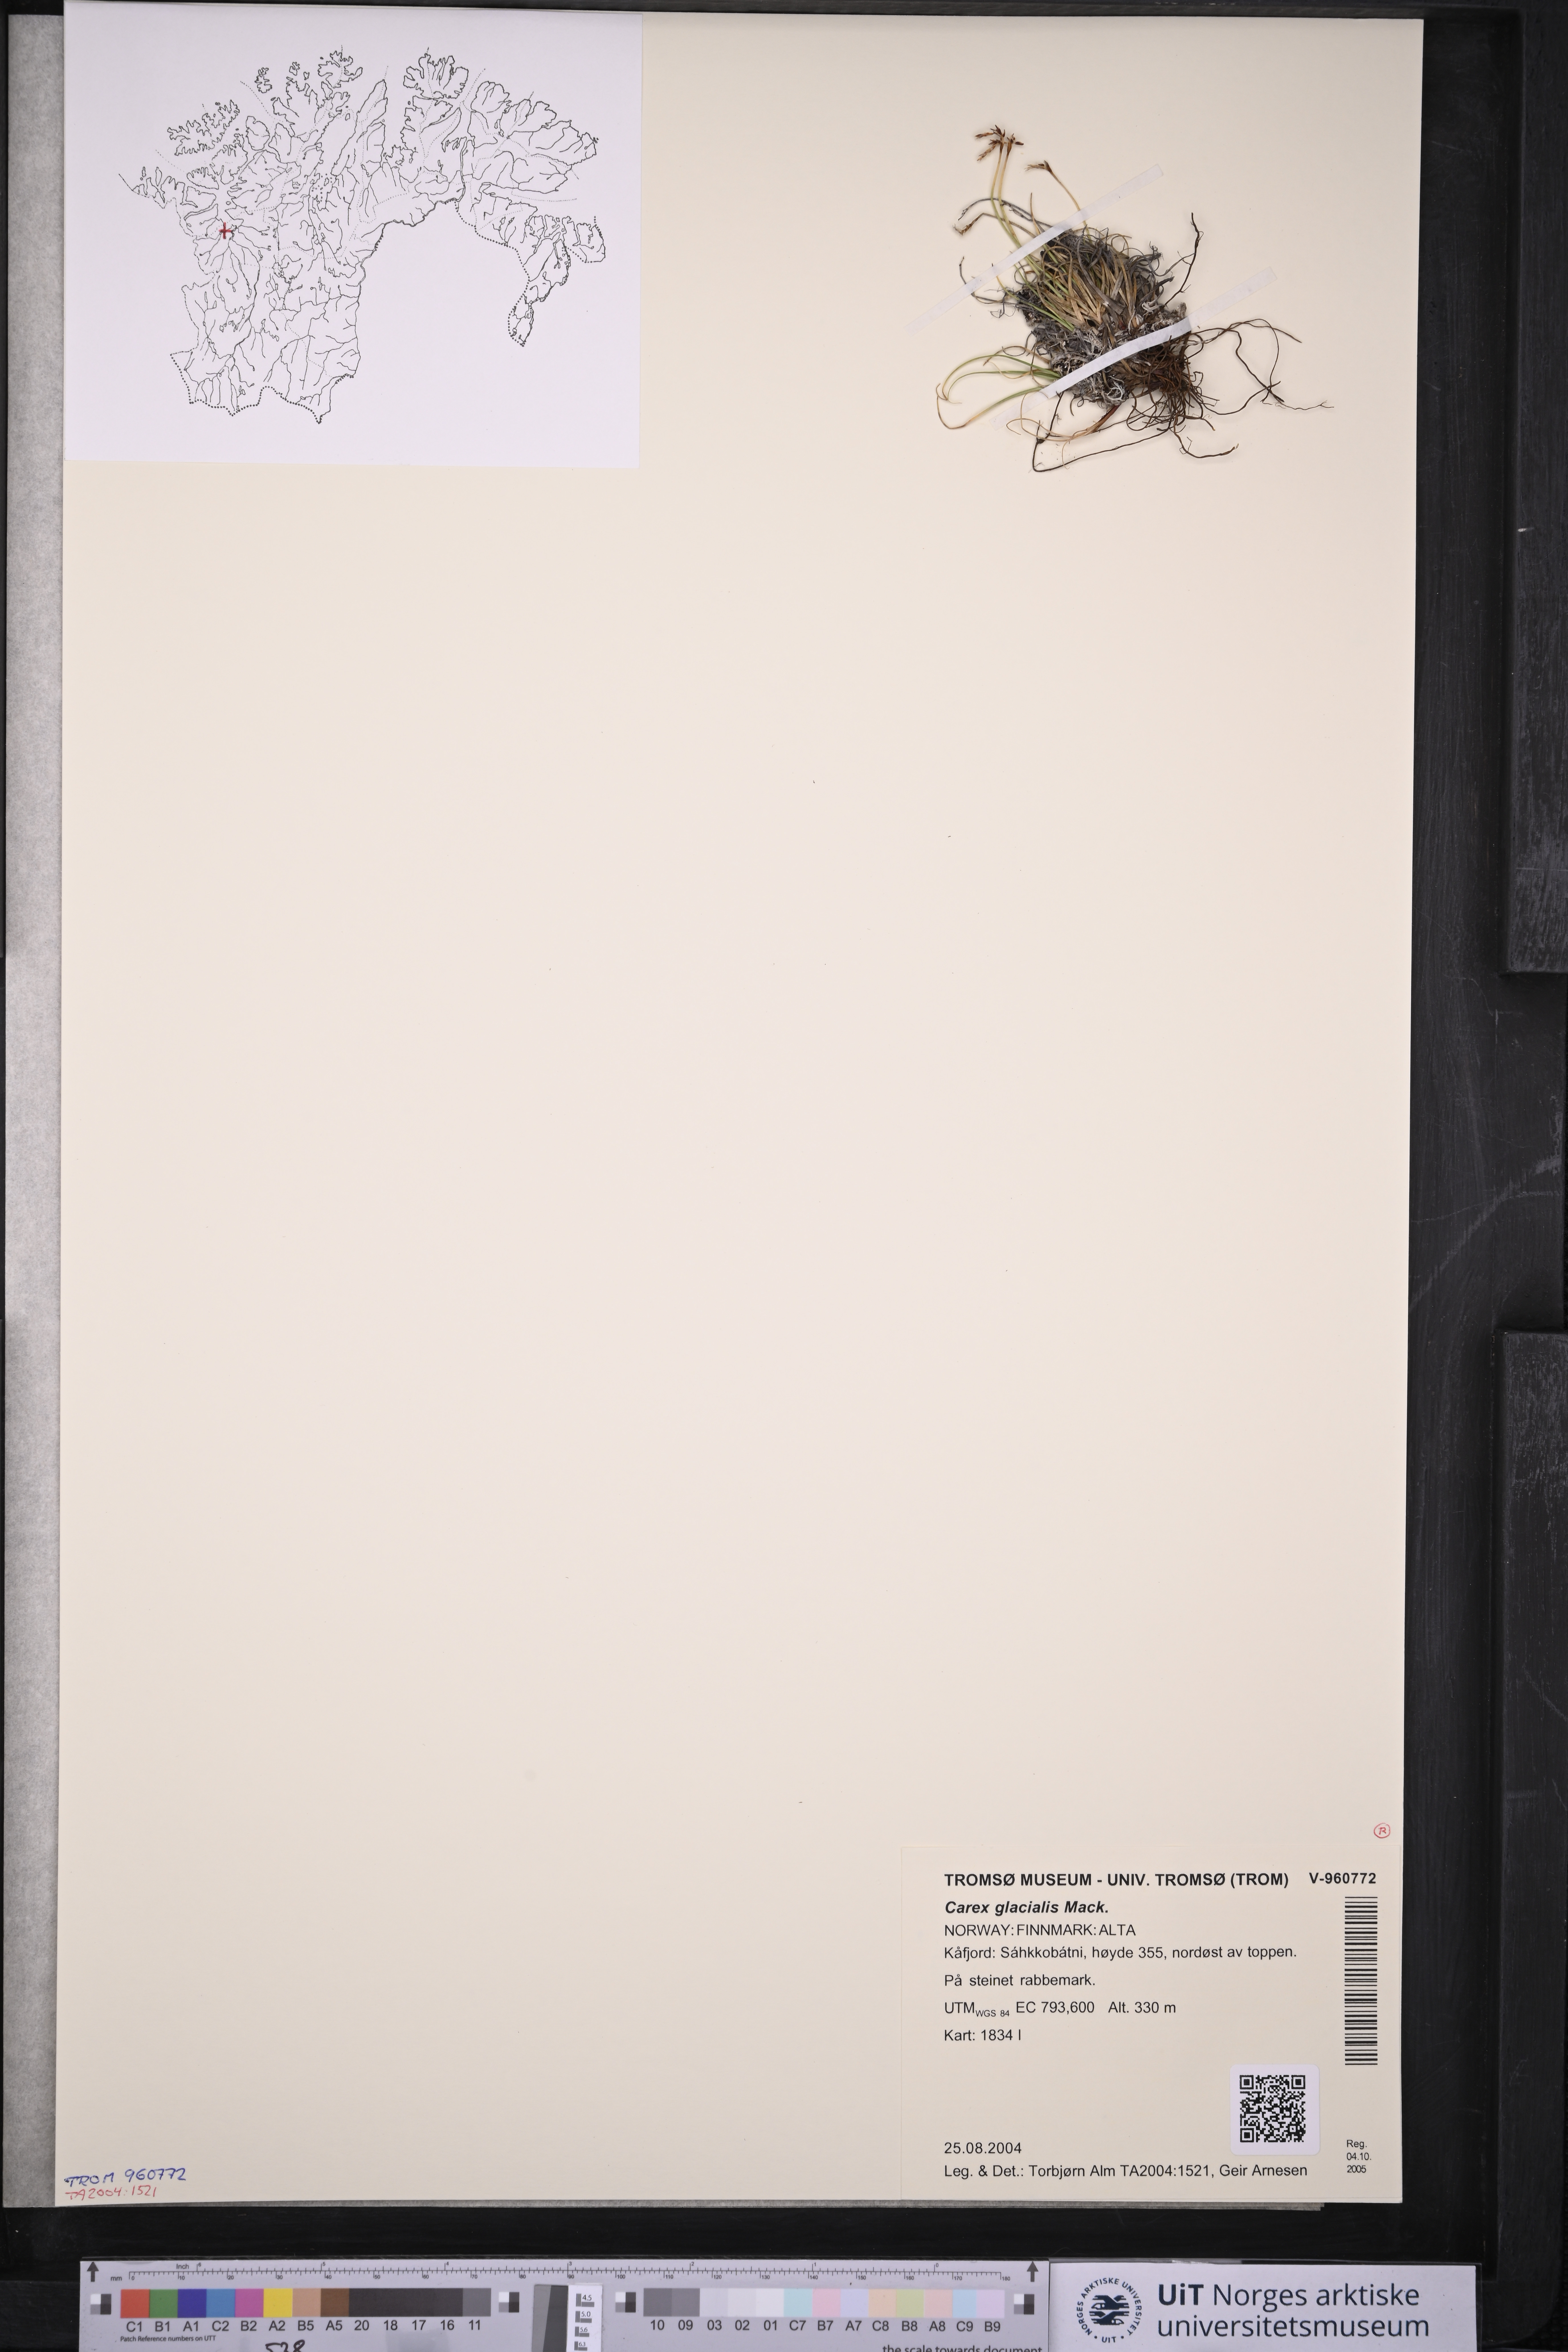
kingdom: Plantae
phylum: Tracheophyta
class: Liliopsida
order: Poales
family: Cyperaceae
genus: Carex
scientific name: Carex glacialis
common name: Newfoundland sedge
